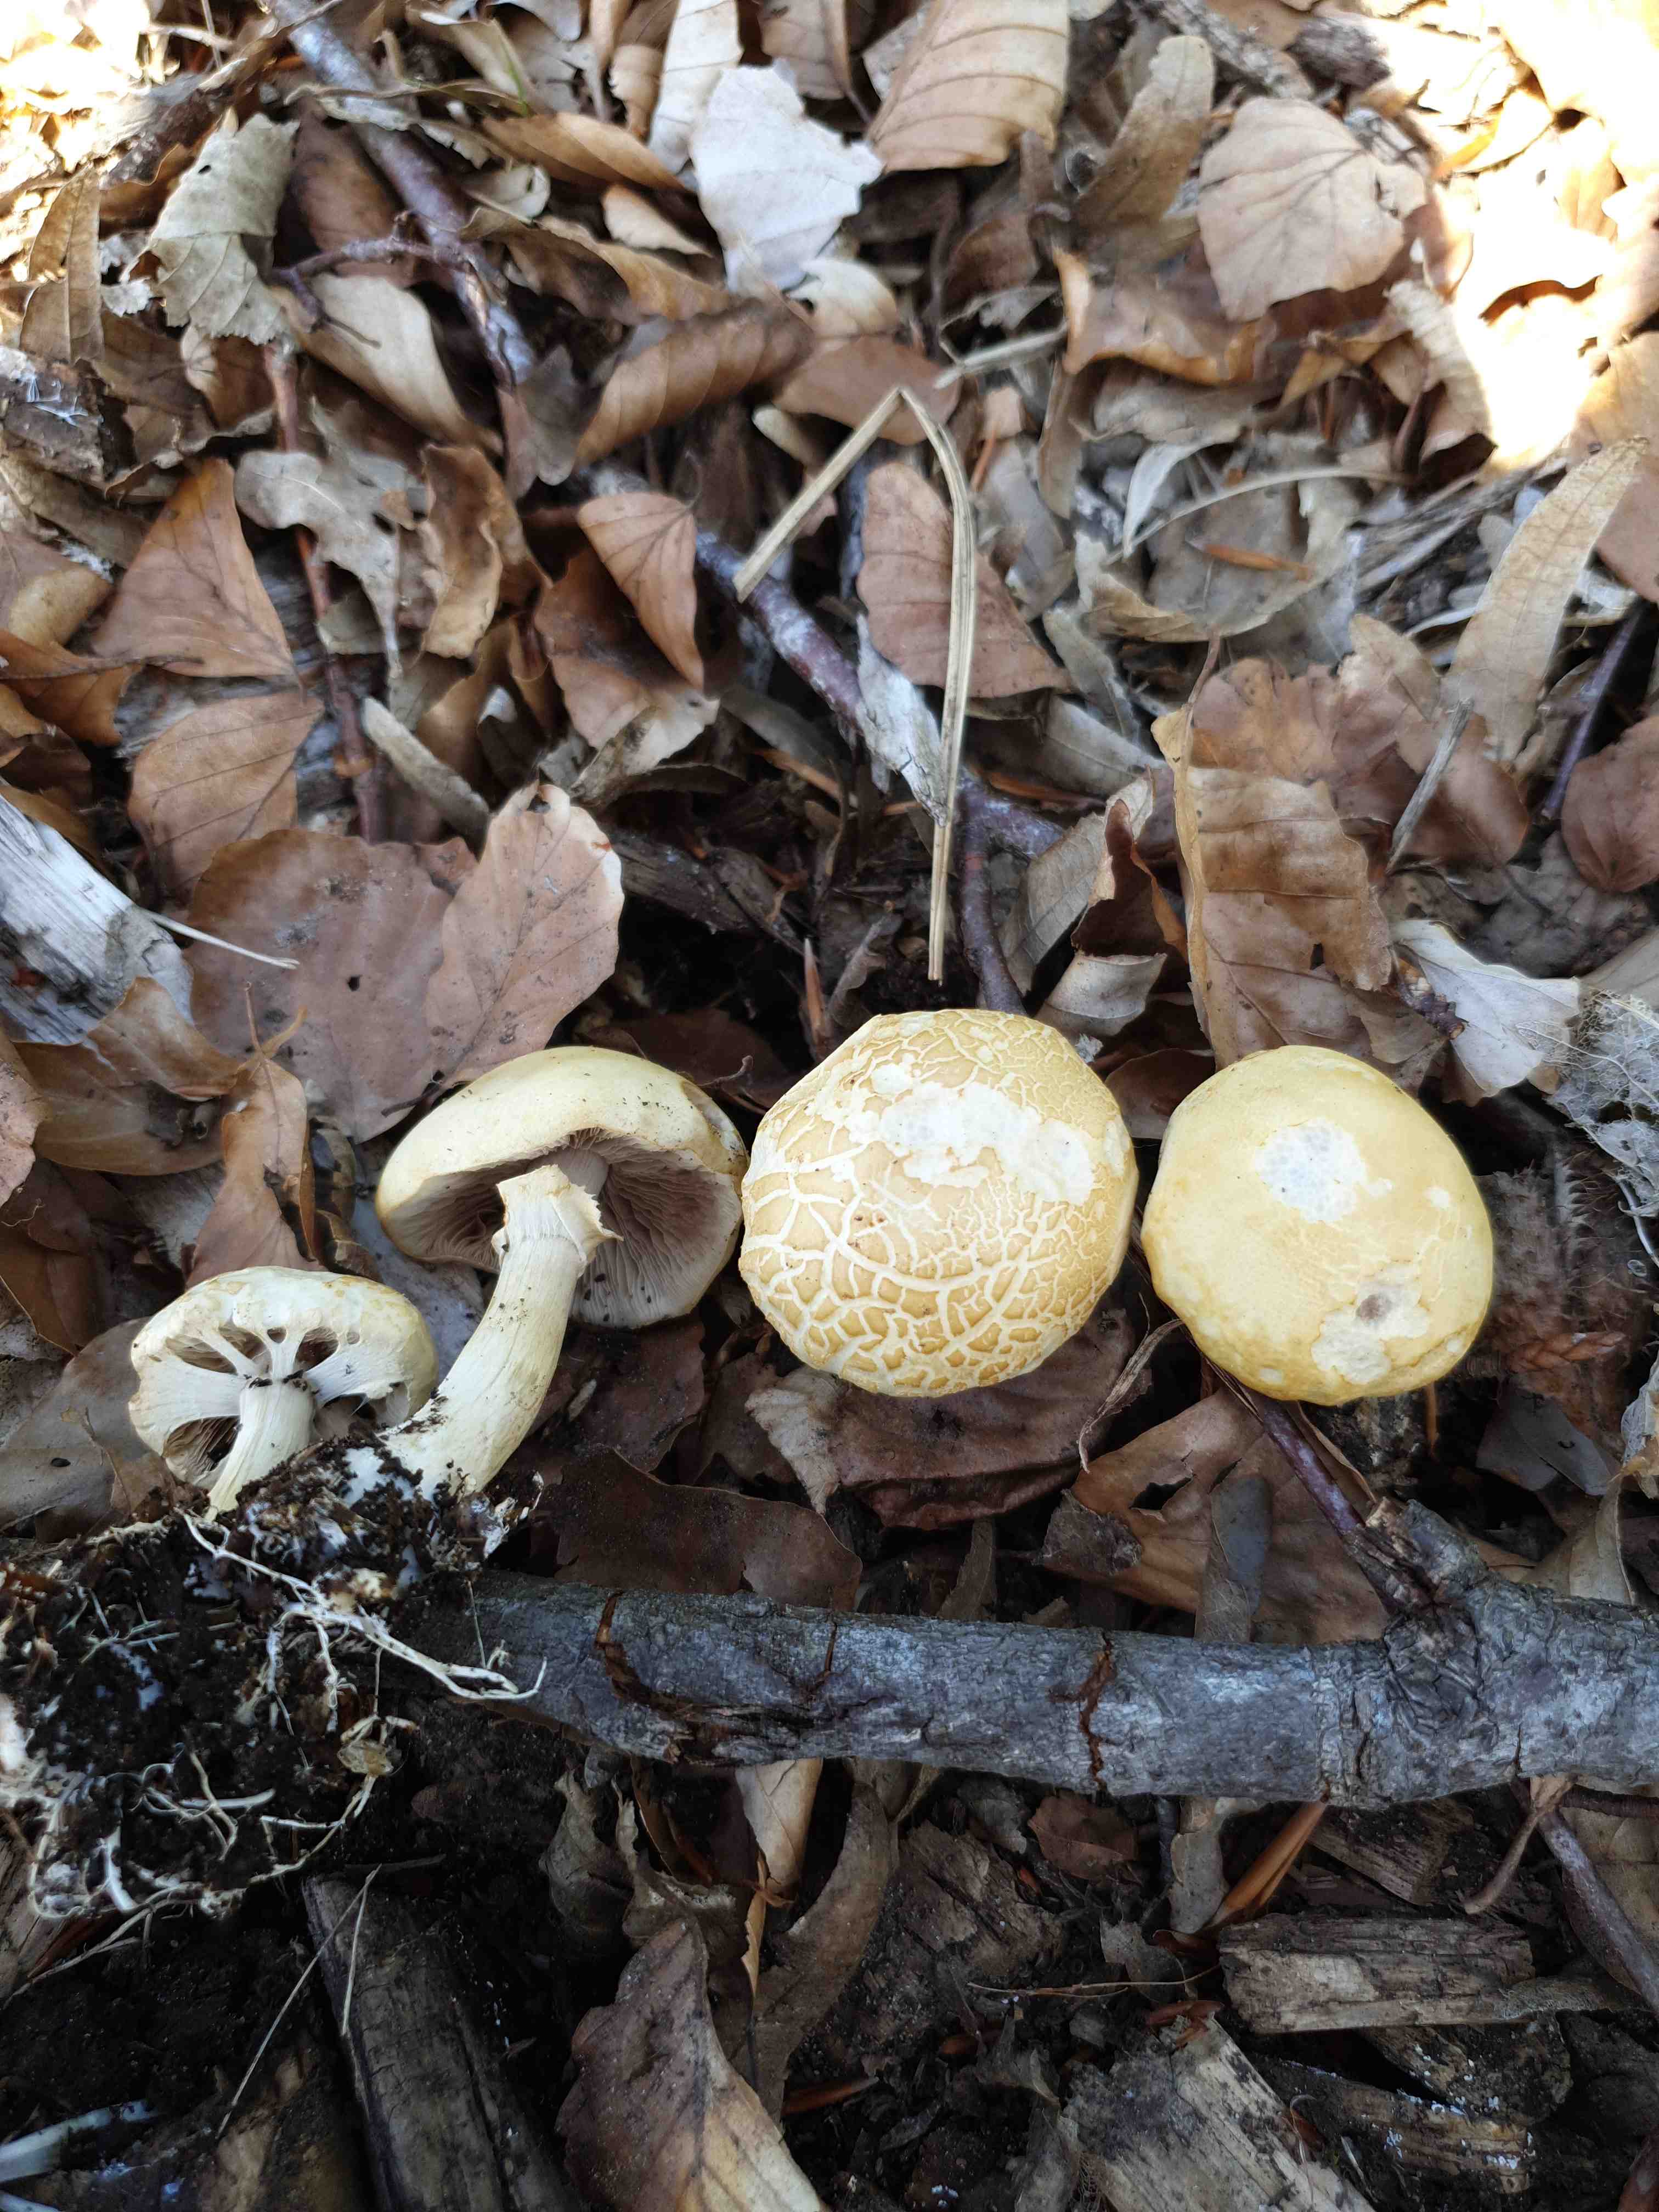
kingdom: Fungi
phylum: Basidiomycota
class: Agaricomycetes
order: Agaricales
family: Strophariaceae
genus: Agrocybe
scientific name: Agrocybe praecox
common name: tidlig agerhat
